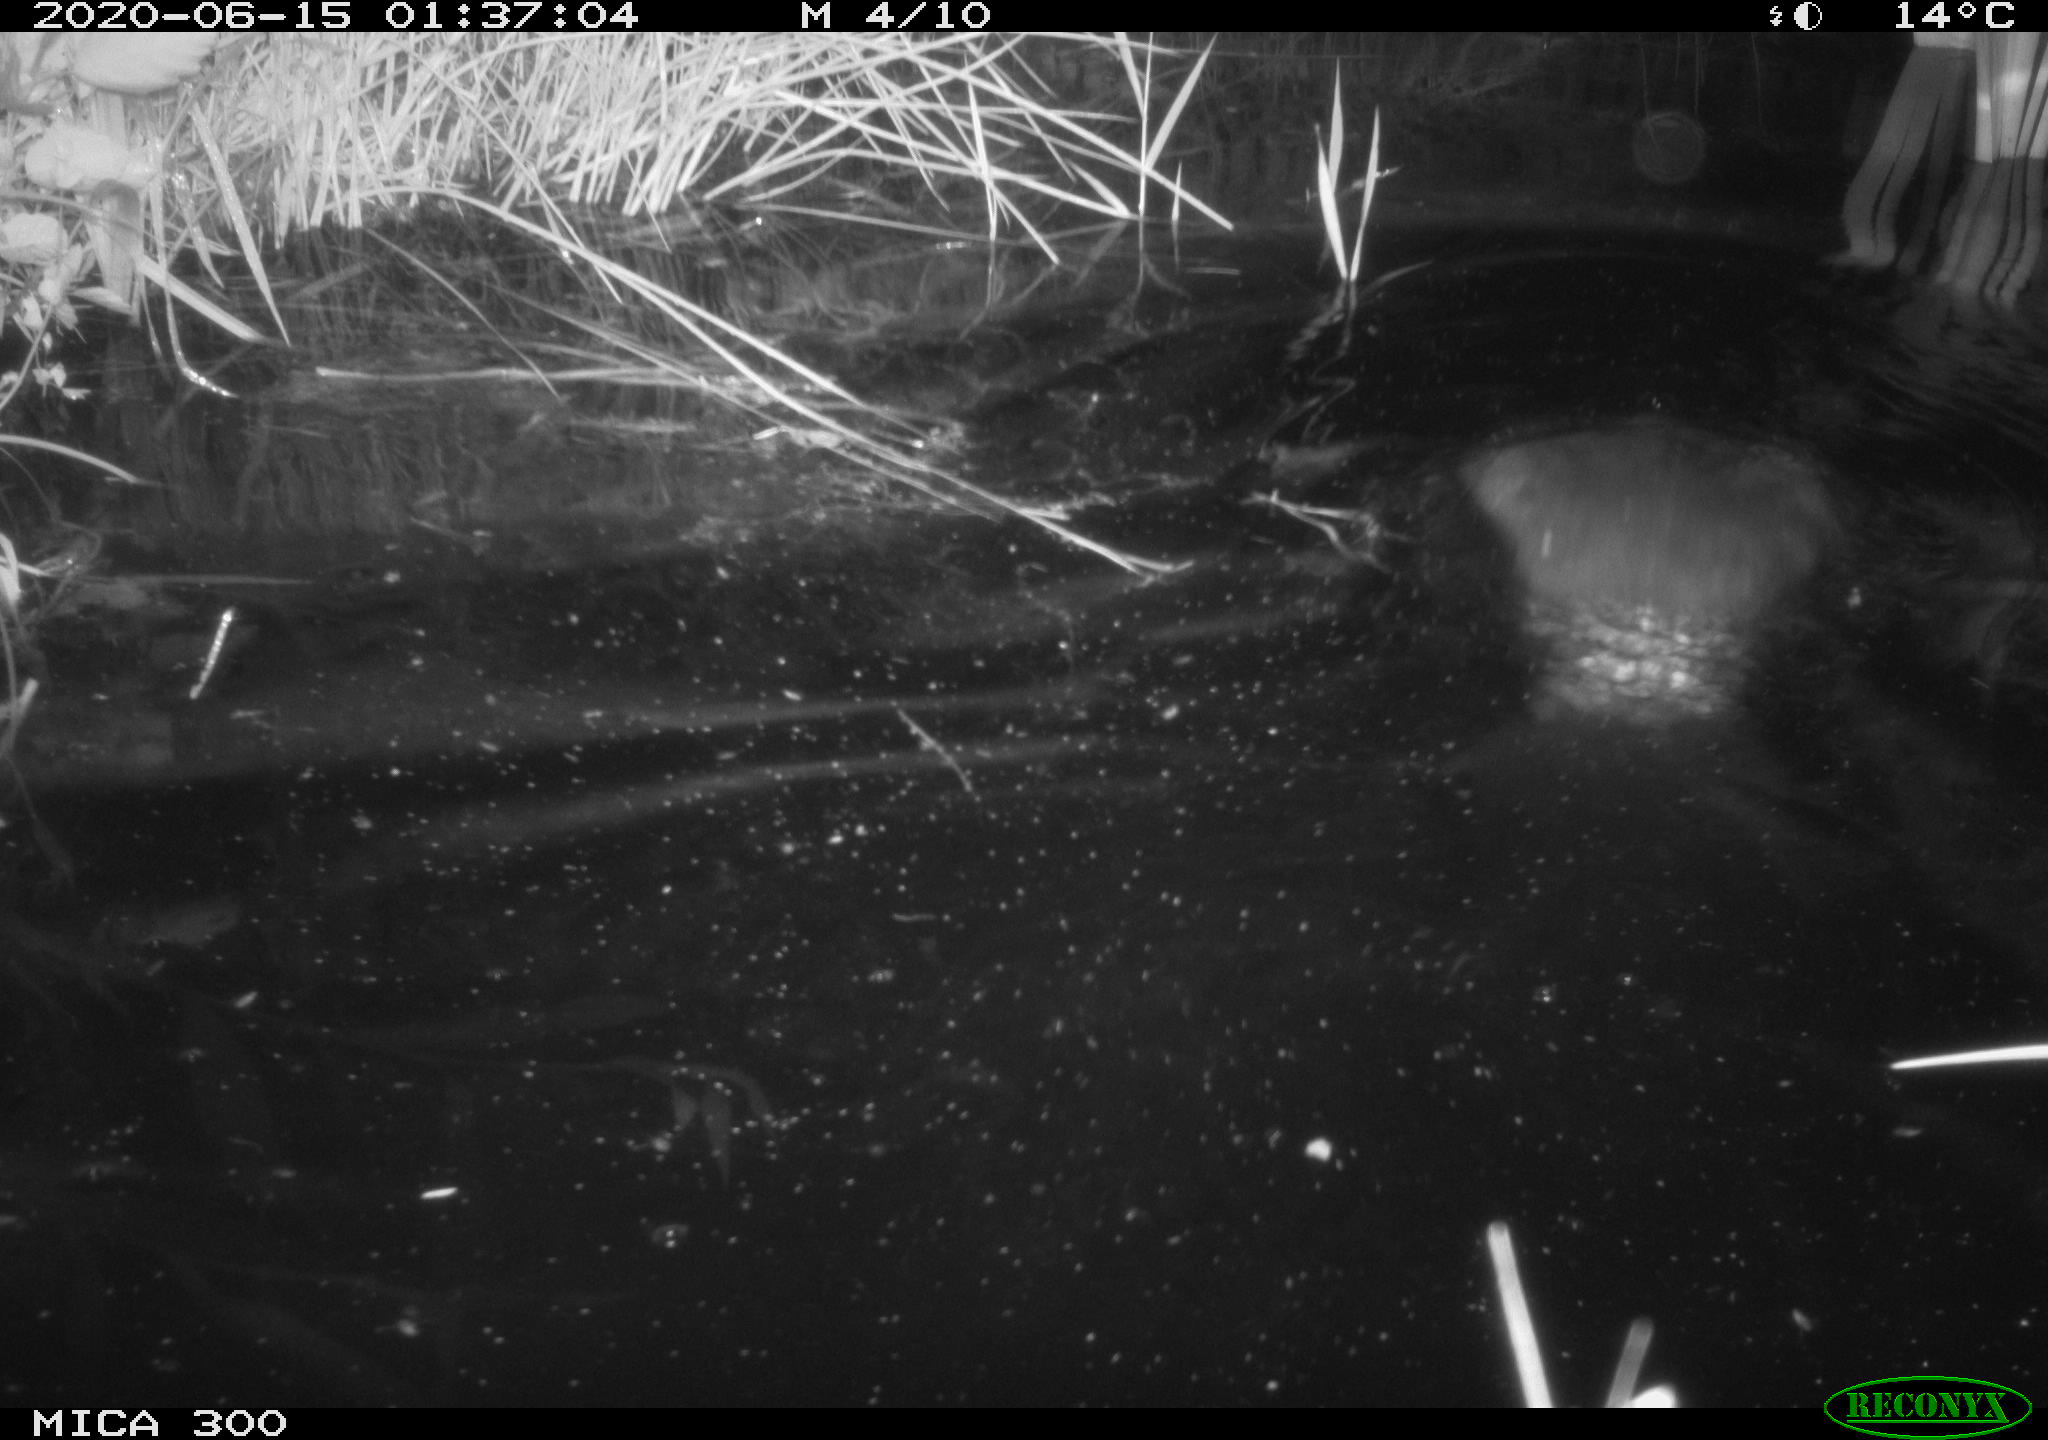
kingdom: Animalia
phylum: Chordata
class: Mammalia
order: Rodentia
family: Castoridae
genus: Castor
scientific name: Castor fiber
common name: Eurasian beaver
